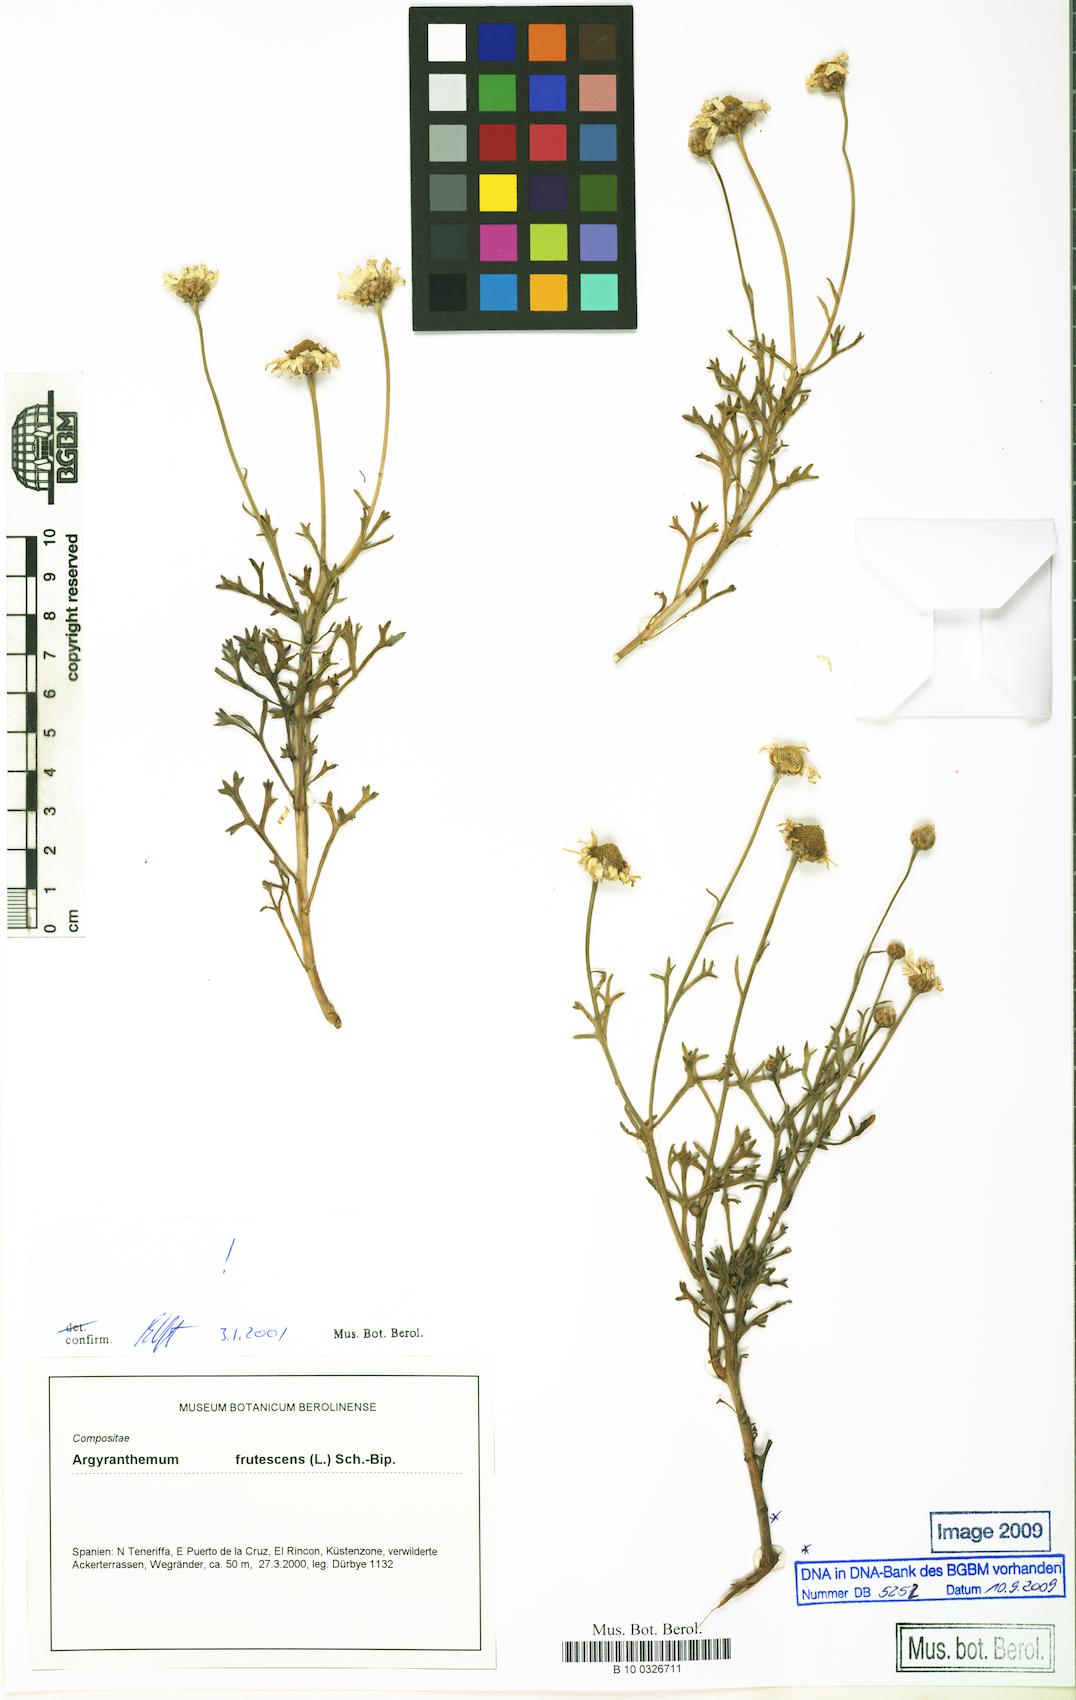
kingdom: Plantae
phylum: Tracheophyta
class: Magnoliopsida
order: Asterales
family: Asteraceae
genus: Argyranthemum
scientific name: Argyranthemum frutescens
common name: Paris daisy
